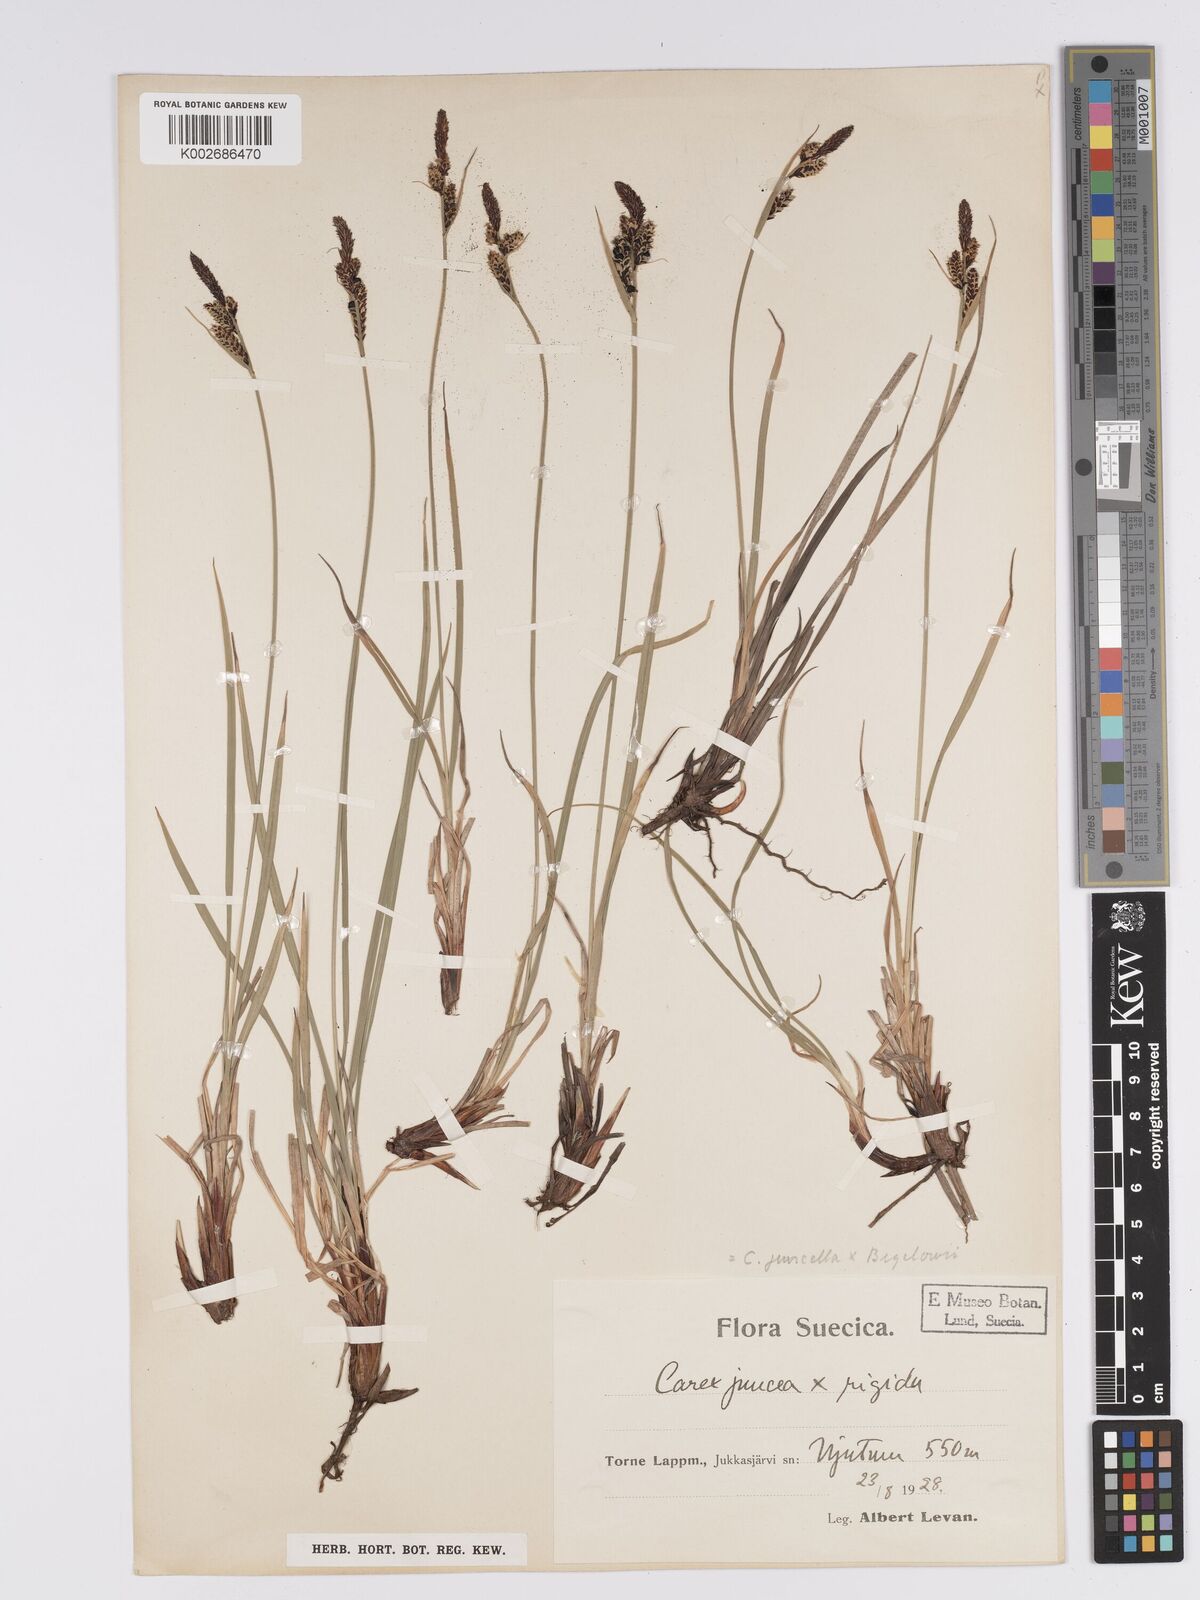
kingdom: Plantae
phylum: Tracheophyta
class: Liliopsida
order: Poales
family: Cyperaceae
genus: Carex
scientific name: Carex bigelowii
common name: Stiff sedge
